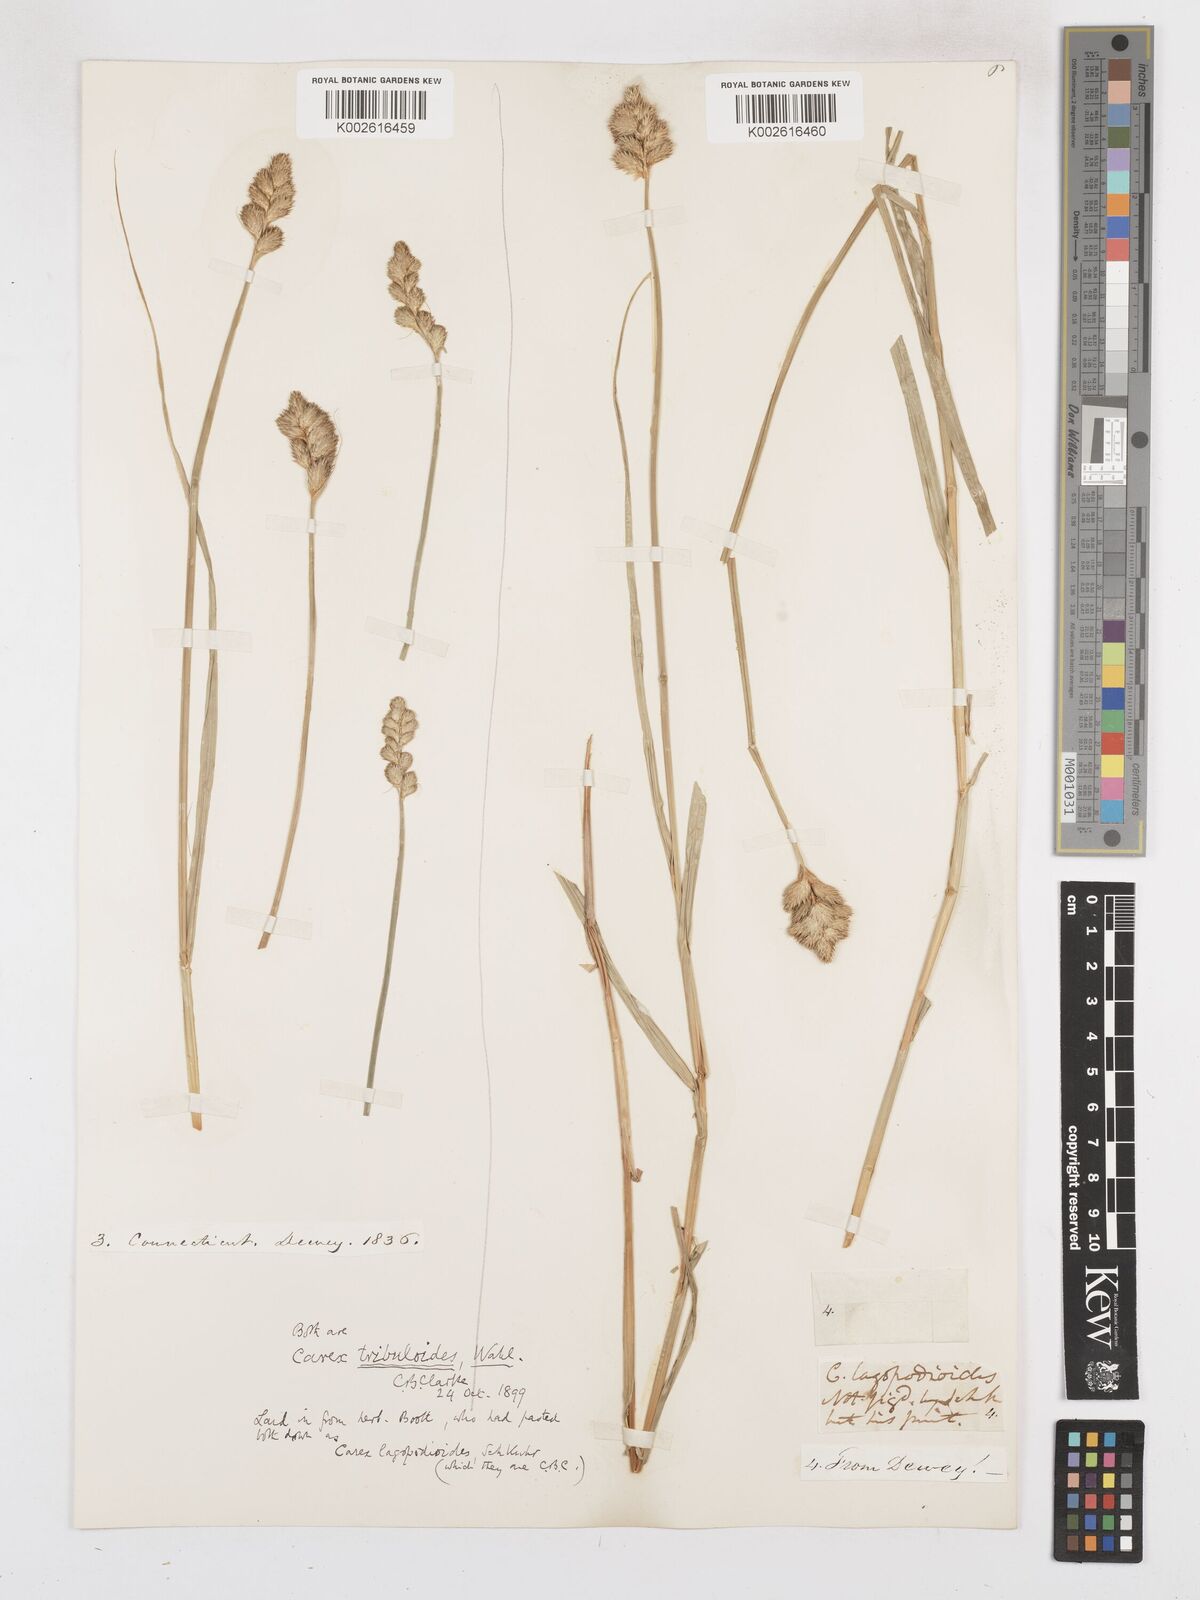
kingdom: Plantae
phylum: Tracheophyta
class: Liliopsida
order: Poales
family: Cyperaceae
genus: Carex
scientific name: Carex tribuloides
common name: Blunt broom sedge
